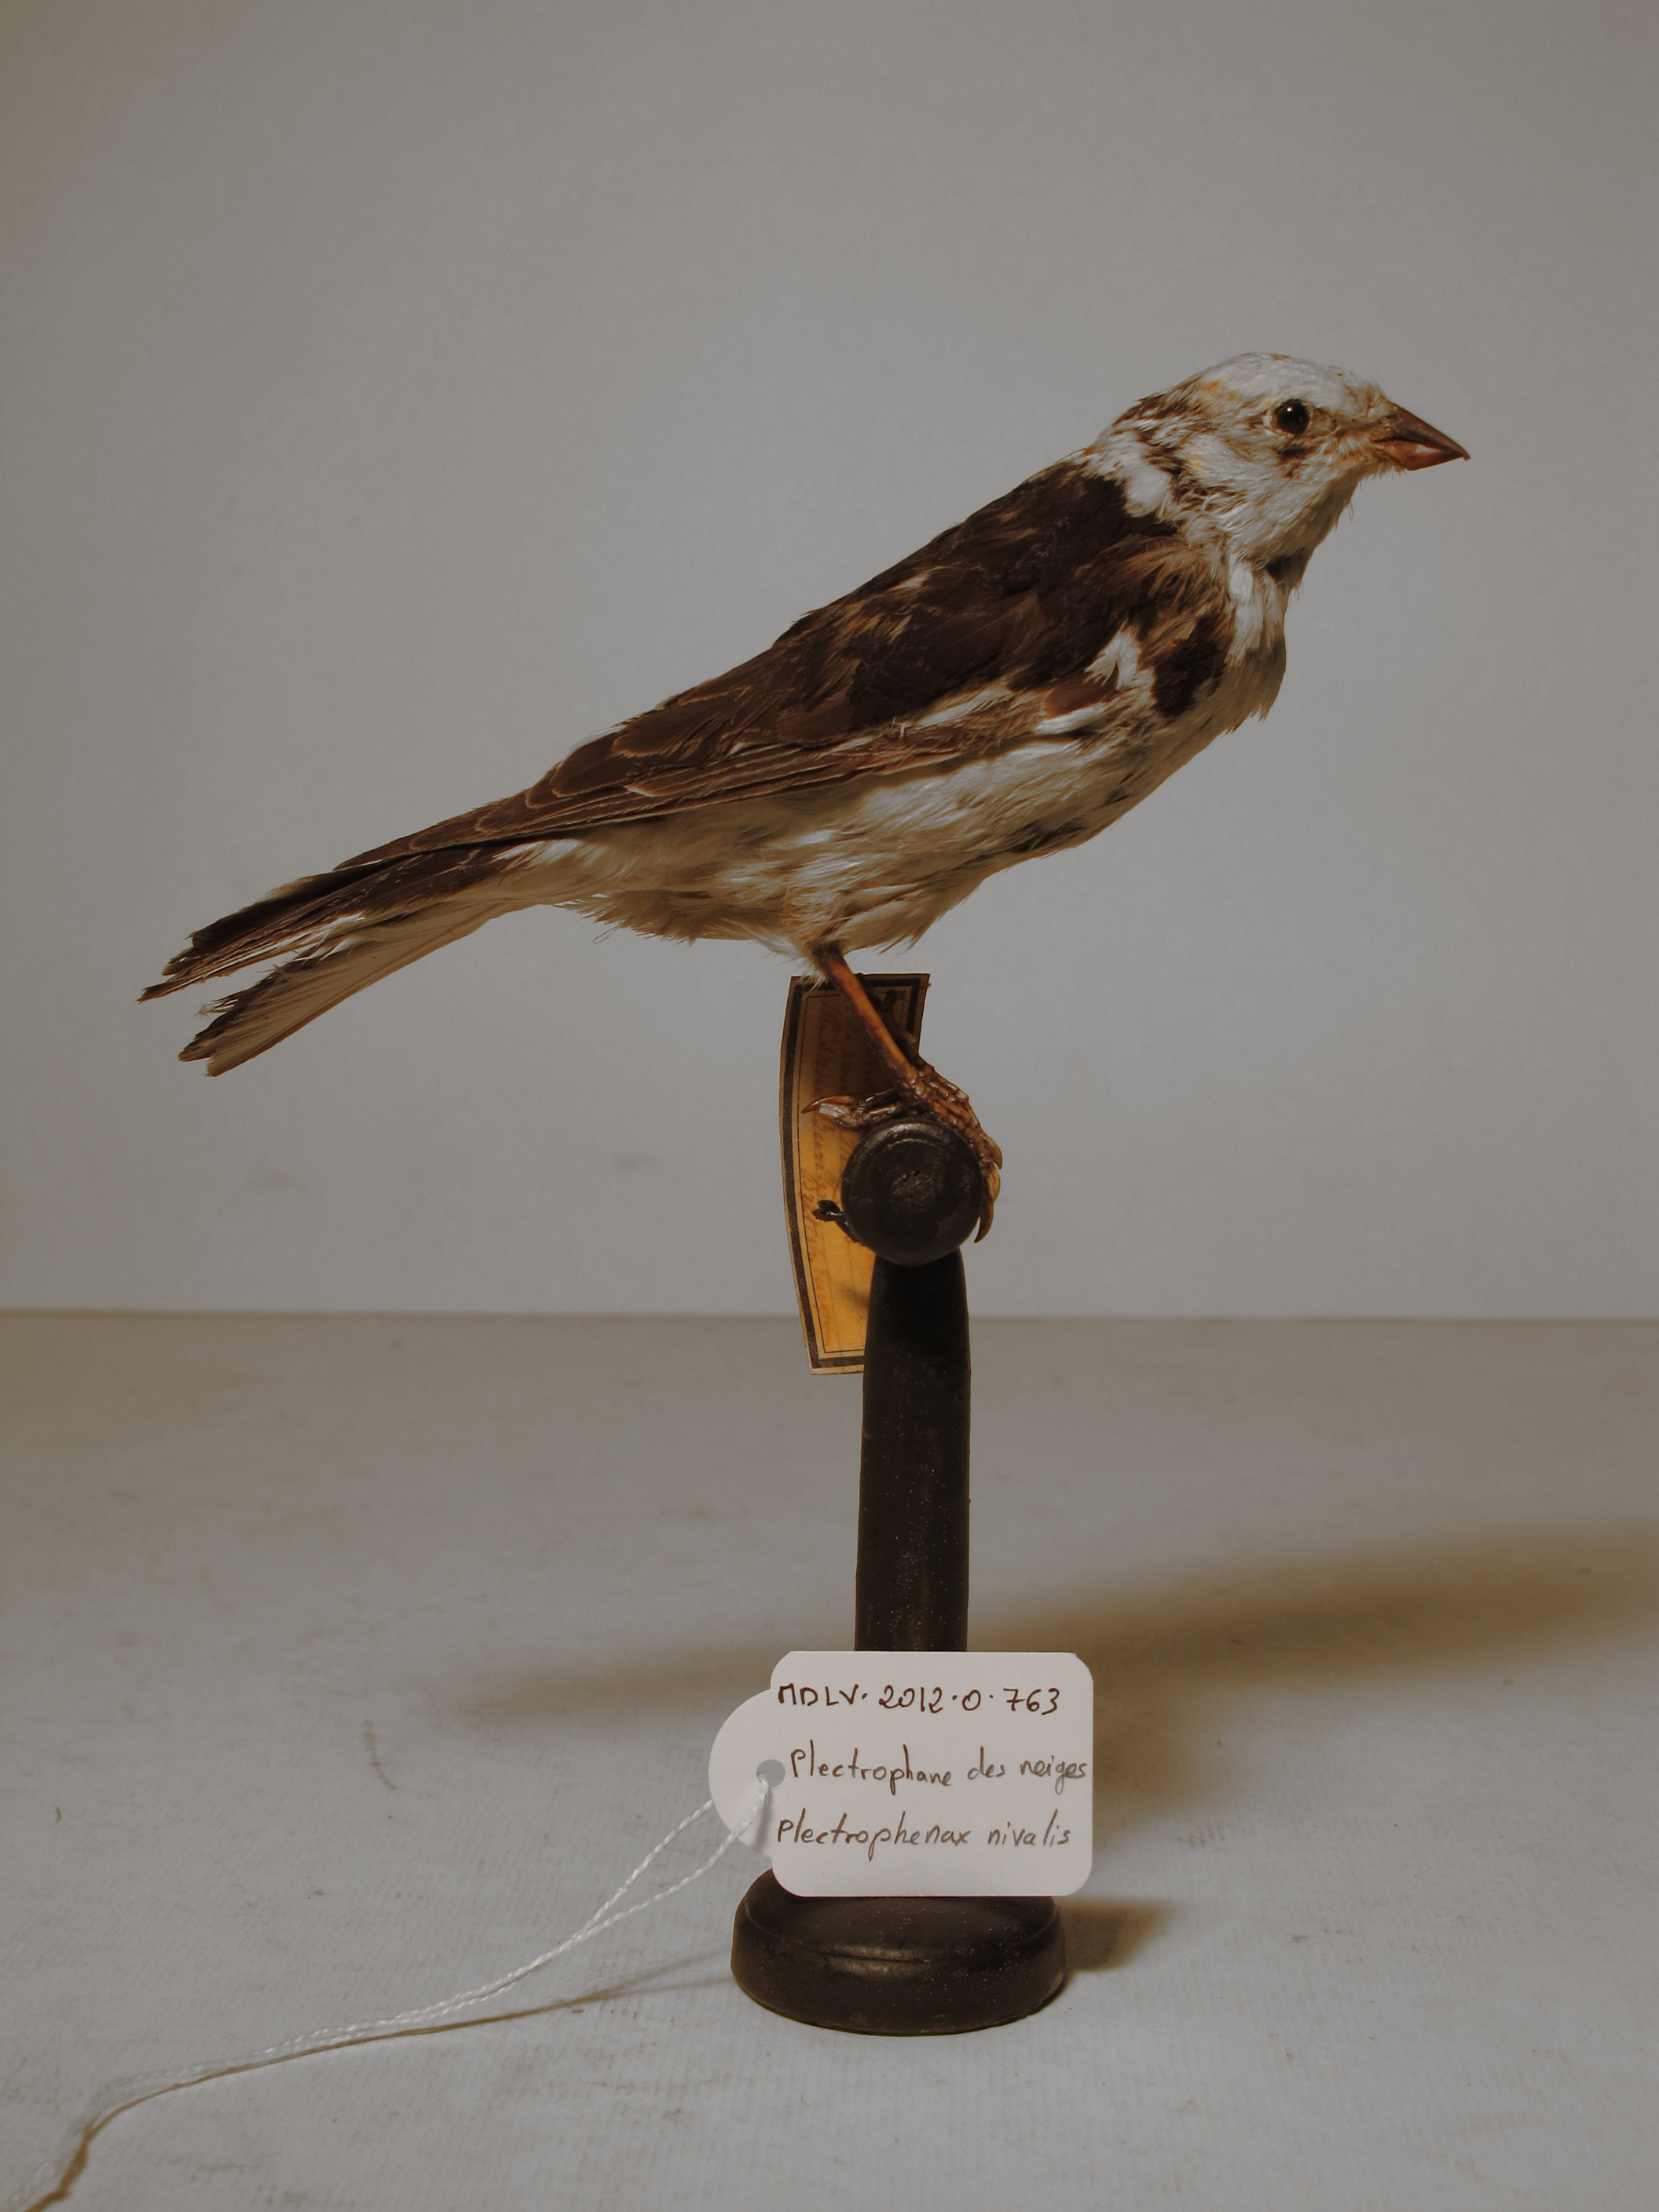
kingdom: Animalia
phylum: Chordata
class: Aves
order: Passeriformes
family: Calcariidae
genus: Plectrophenax
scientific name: Plectrophenax nivalis
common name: Snow Bunting
